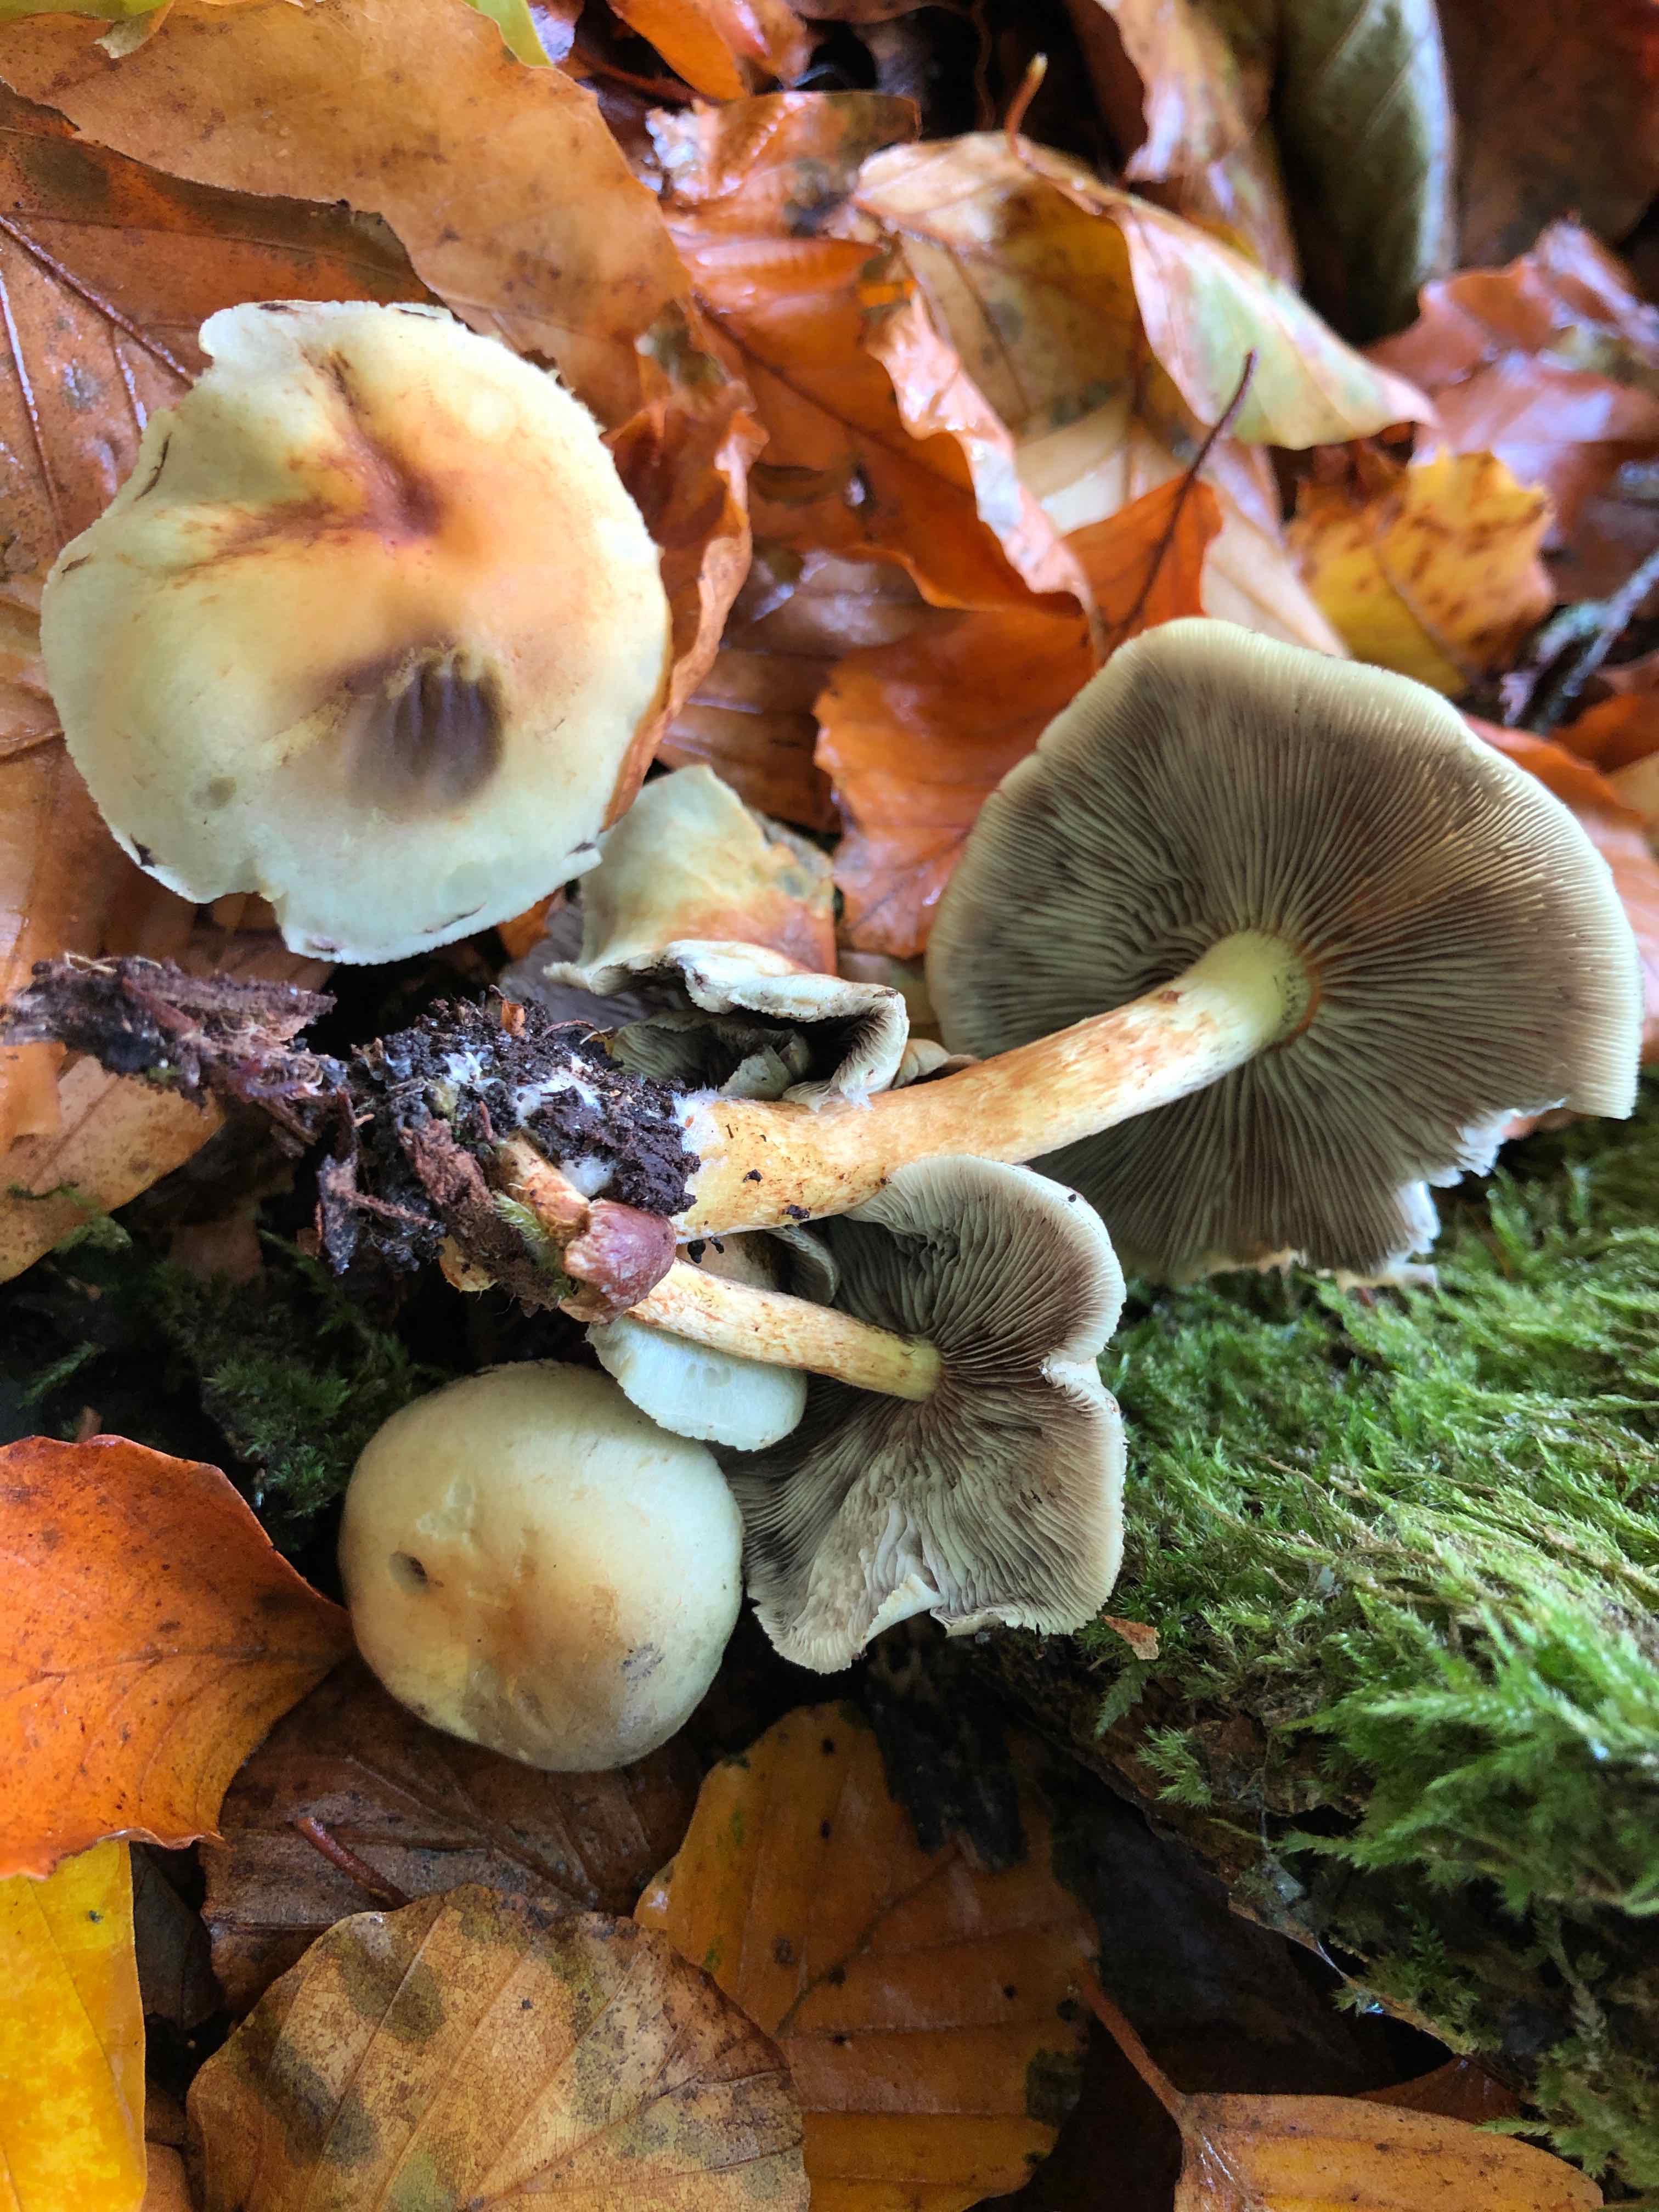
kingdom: Fungi
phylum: Basidiomycota
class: Agaricomycetes
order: Agaricales
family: Strophariaceae
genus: Hypholoma
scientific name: Hypholoma fasciculare
